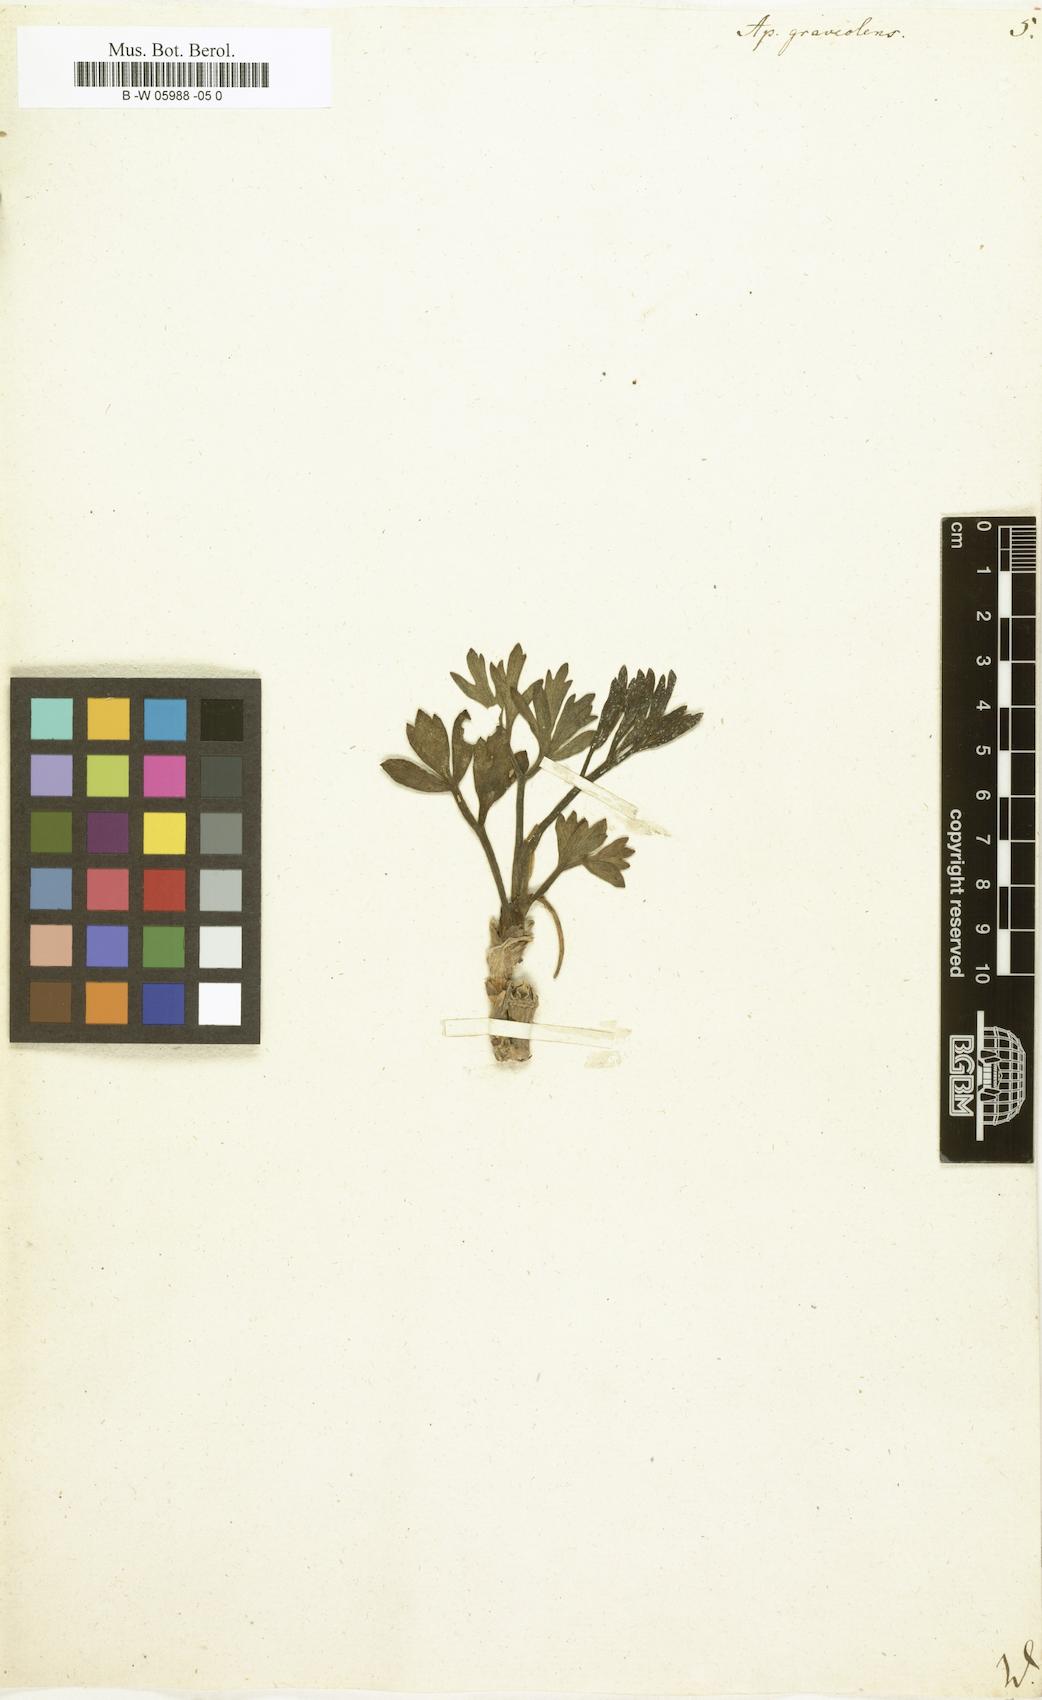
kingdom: Plantae
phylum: Tracheophyta
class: Magnoliopsida
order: Apiales
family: Apiaceae
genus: Apium
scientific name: Apium graveolens
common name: Wild celery
